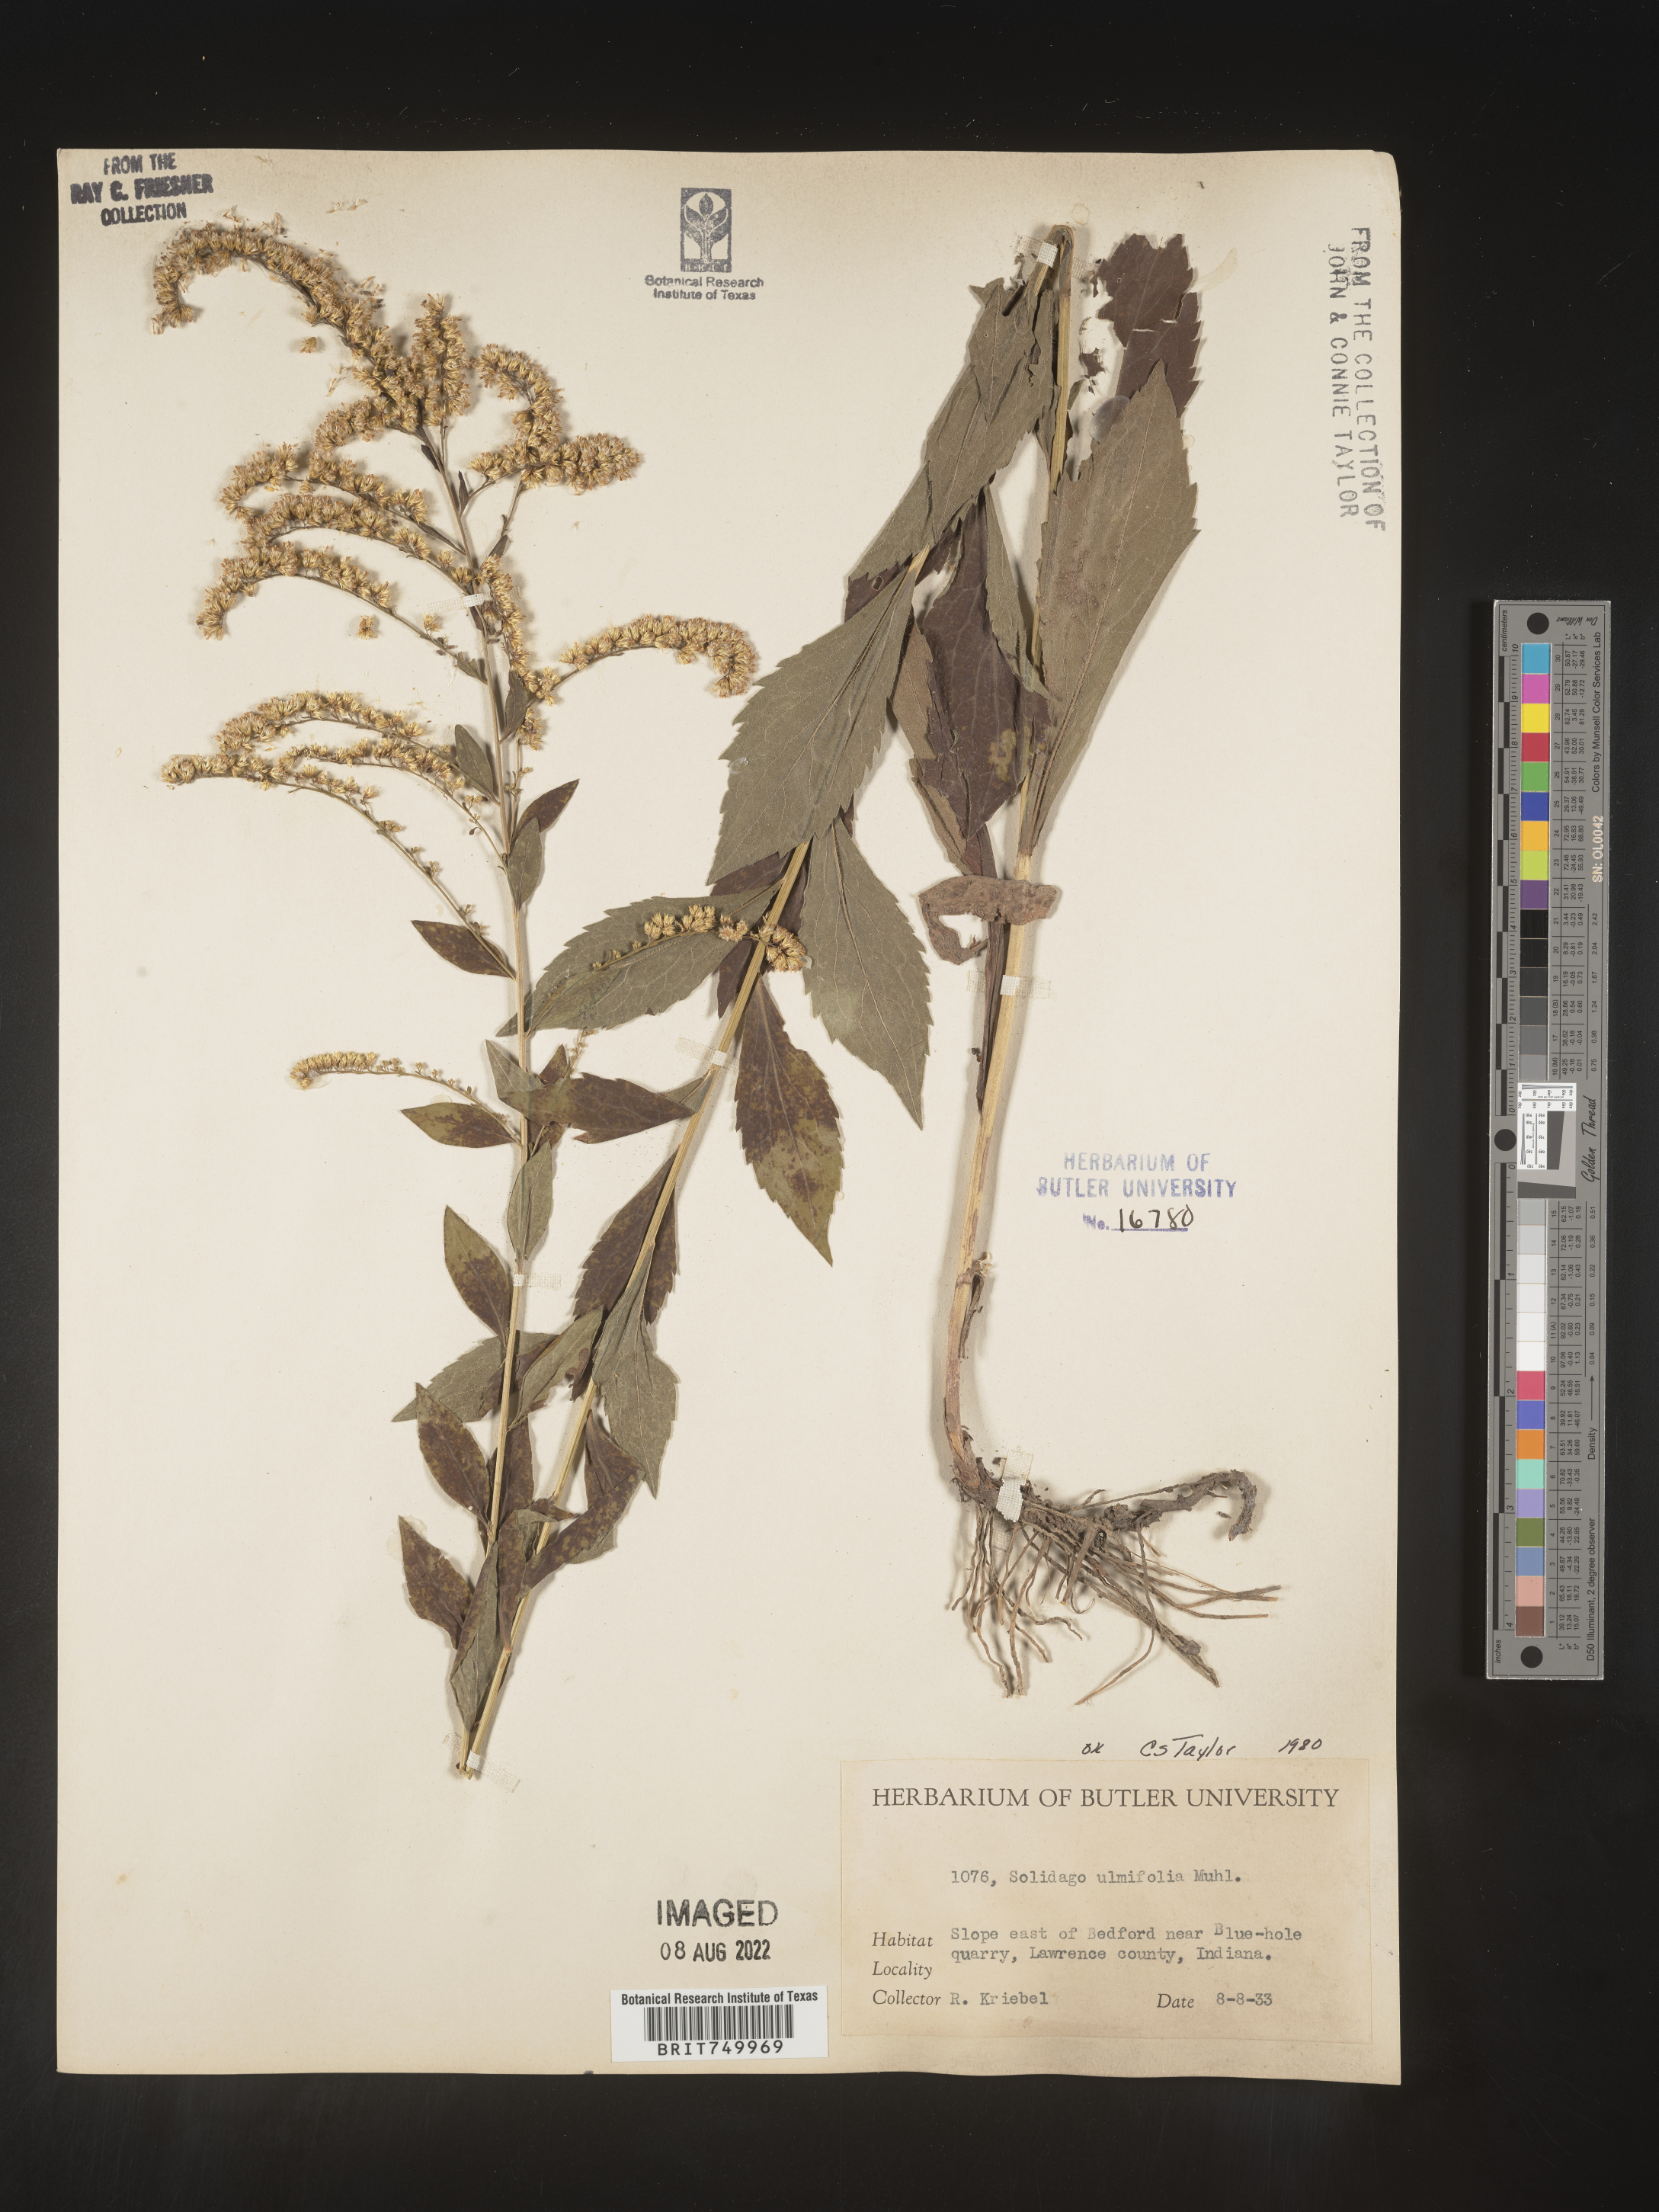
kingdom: Plantae
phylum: Tracheophyta
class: Magnoliopsida
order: Asterales
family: Asteraceae
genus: Solidago
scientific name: Solidago ulmifolia
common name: Elm-leaf goldenrod
